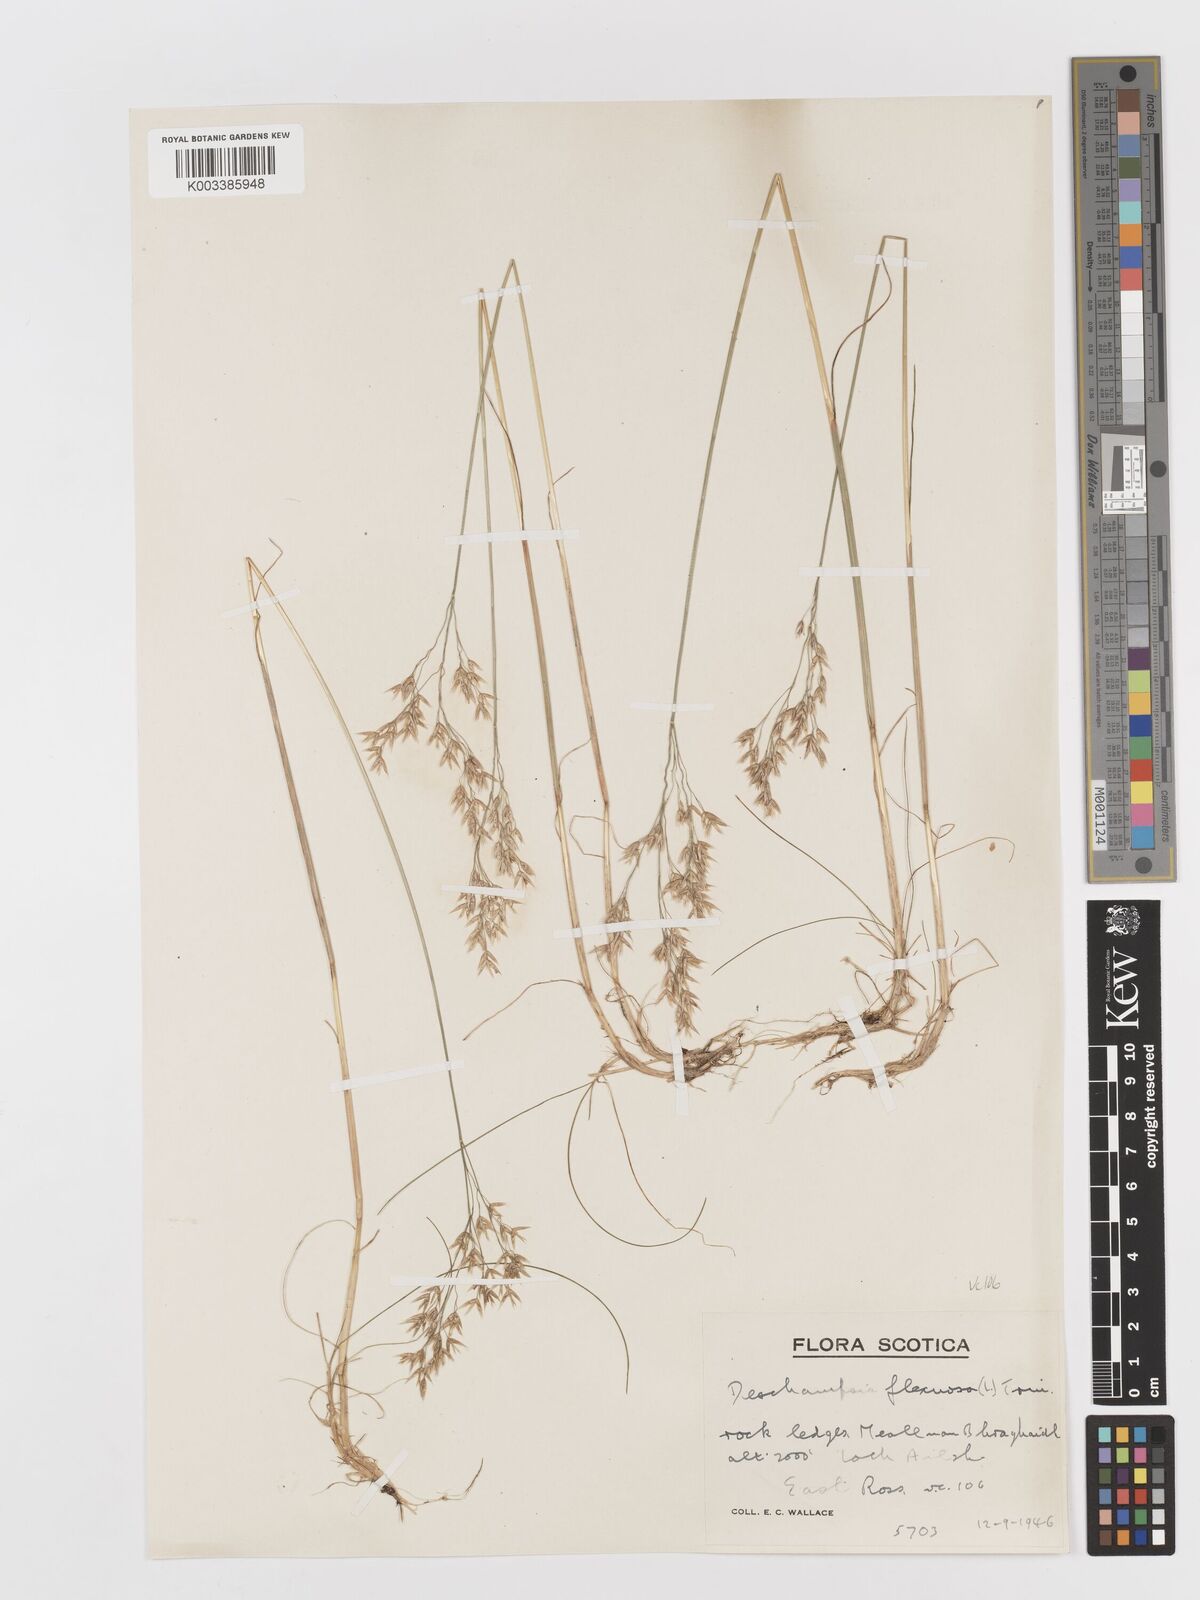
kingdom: Plantae
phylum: Tracheophyta
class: Liliopsida
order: Poales
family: Poaceae
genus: Avenella
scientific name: Avenella flexuosa
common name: Wavy hairgrass
